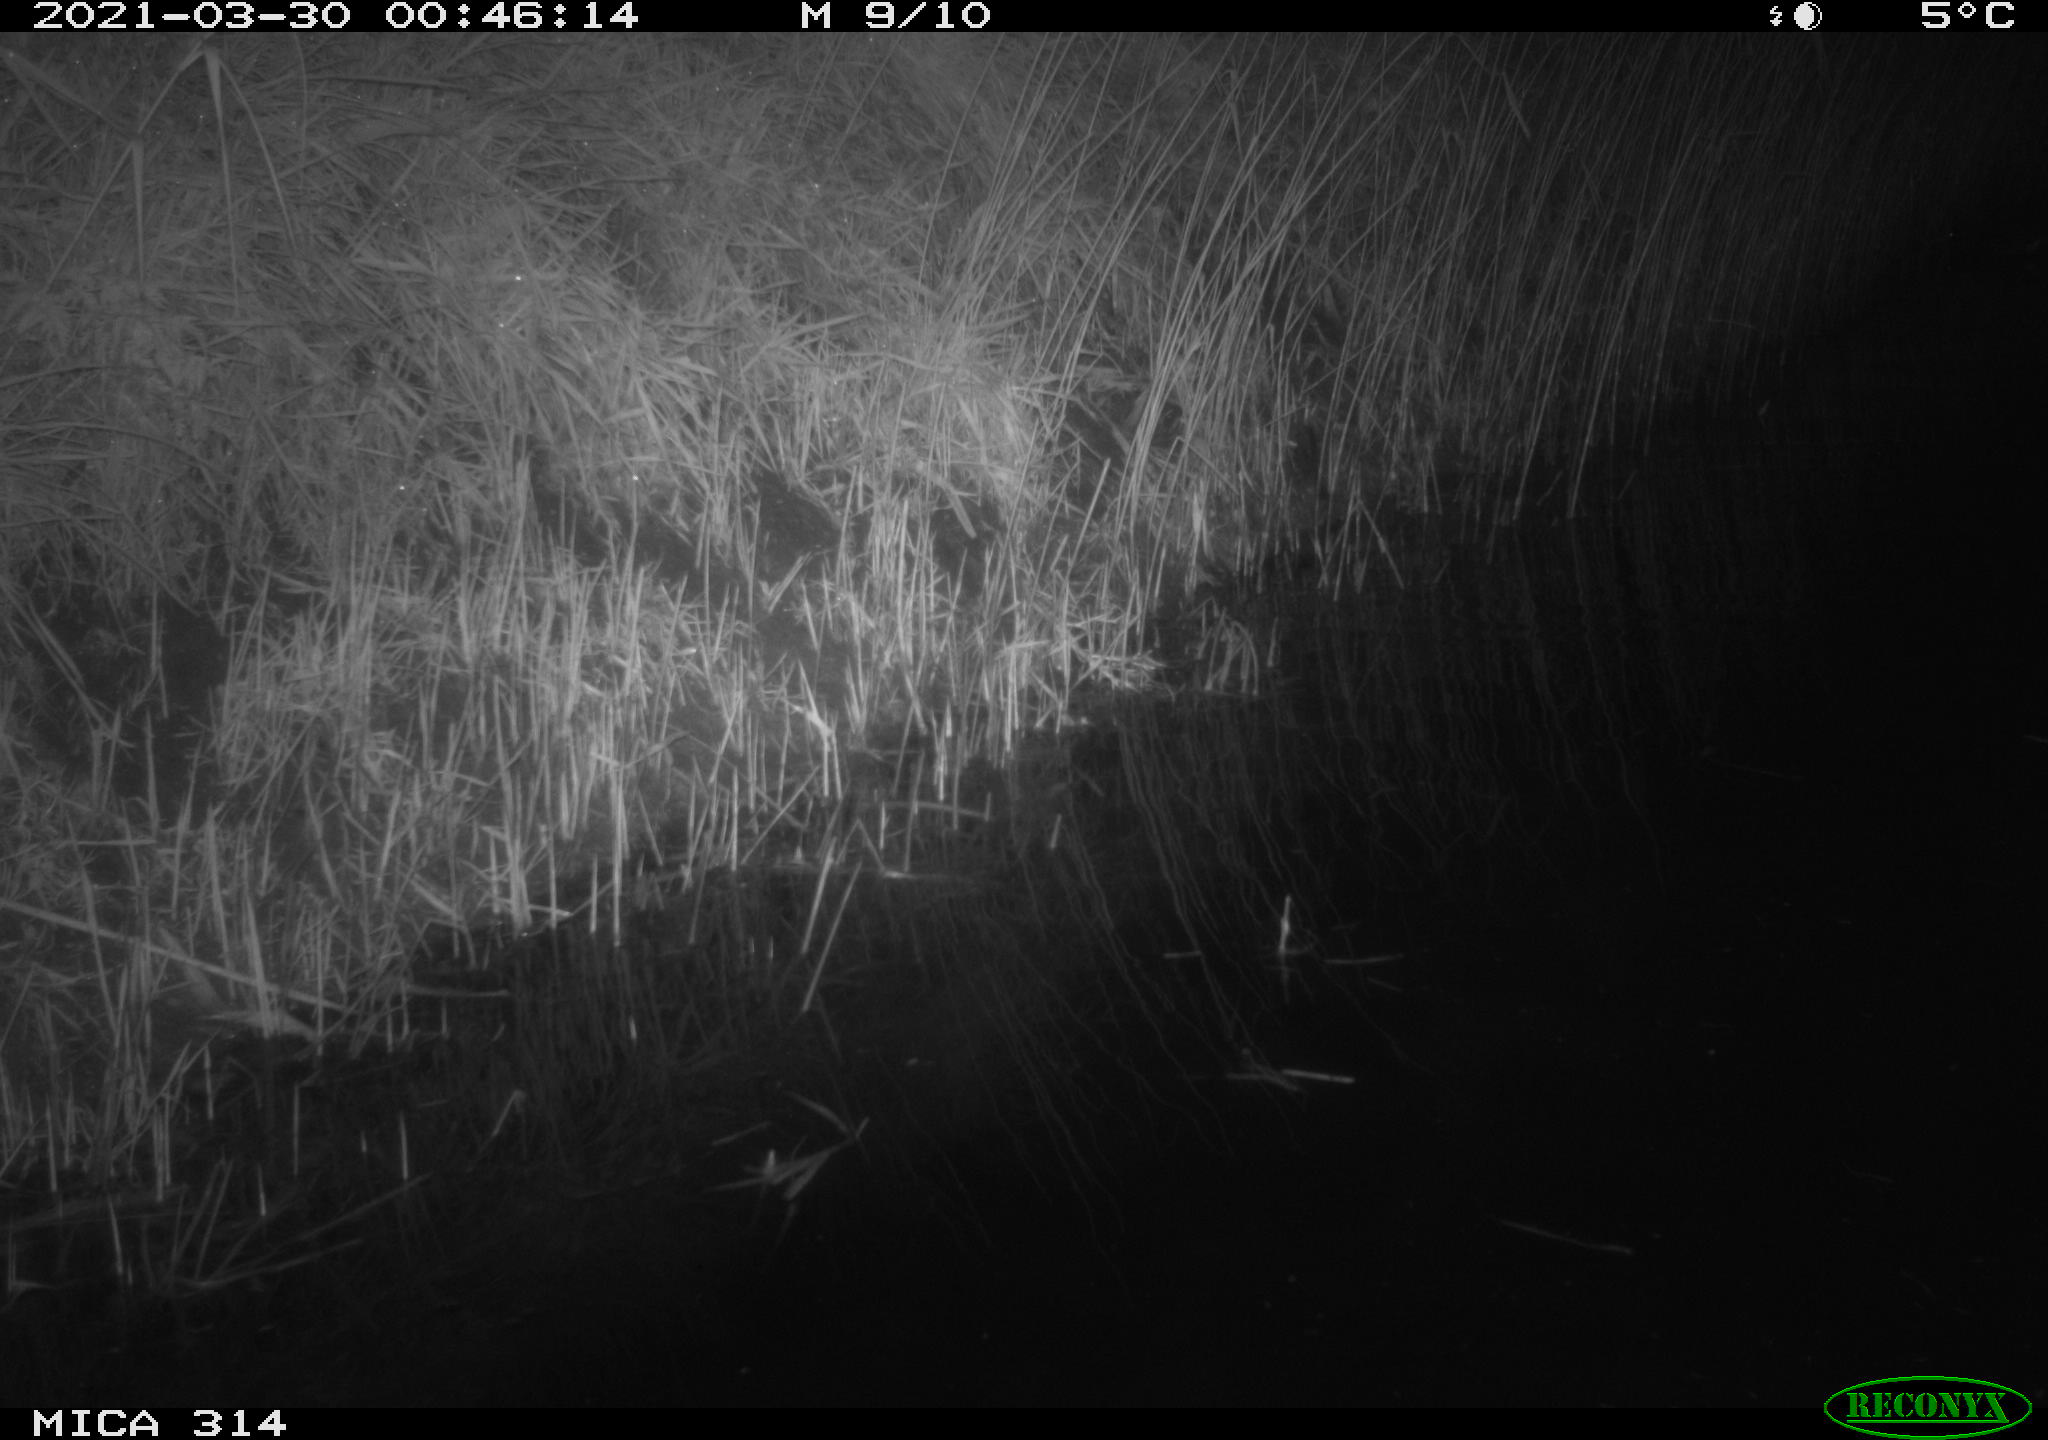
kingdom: Animalia
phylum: Chordata
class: Mammalia
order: Rodentia
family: Muridae
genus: Rattus
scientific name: Rattus norvegicus
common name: Brown rat
